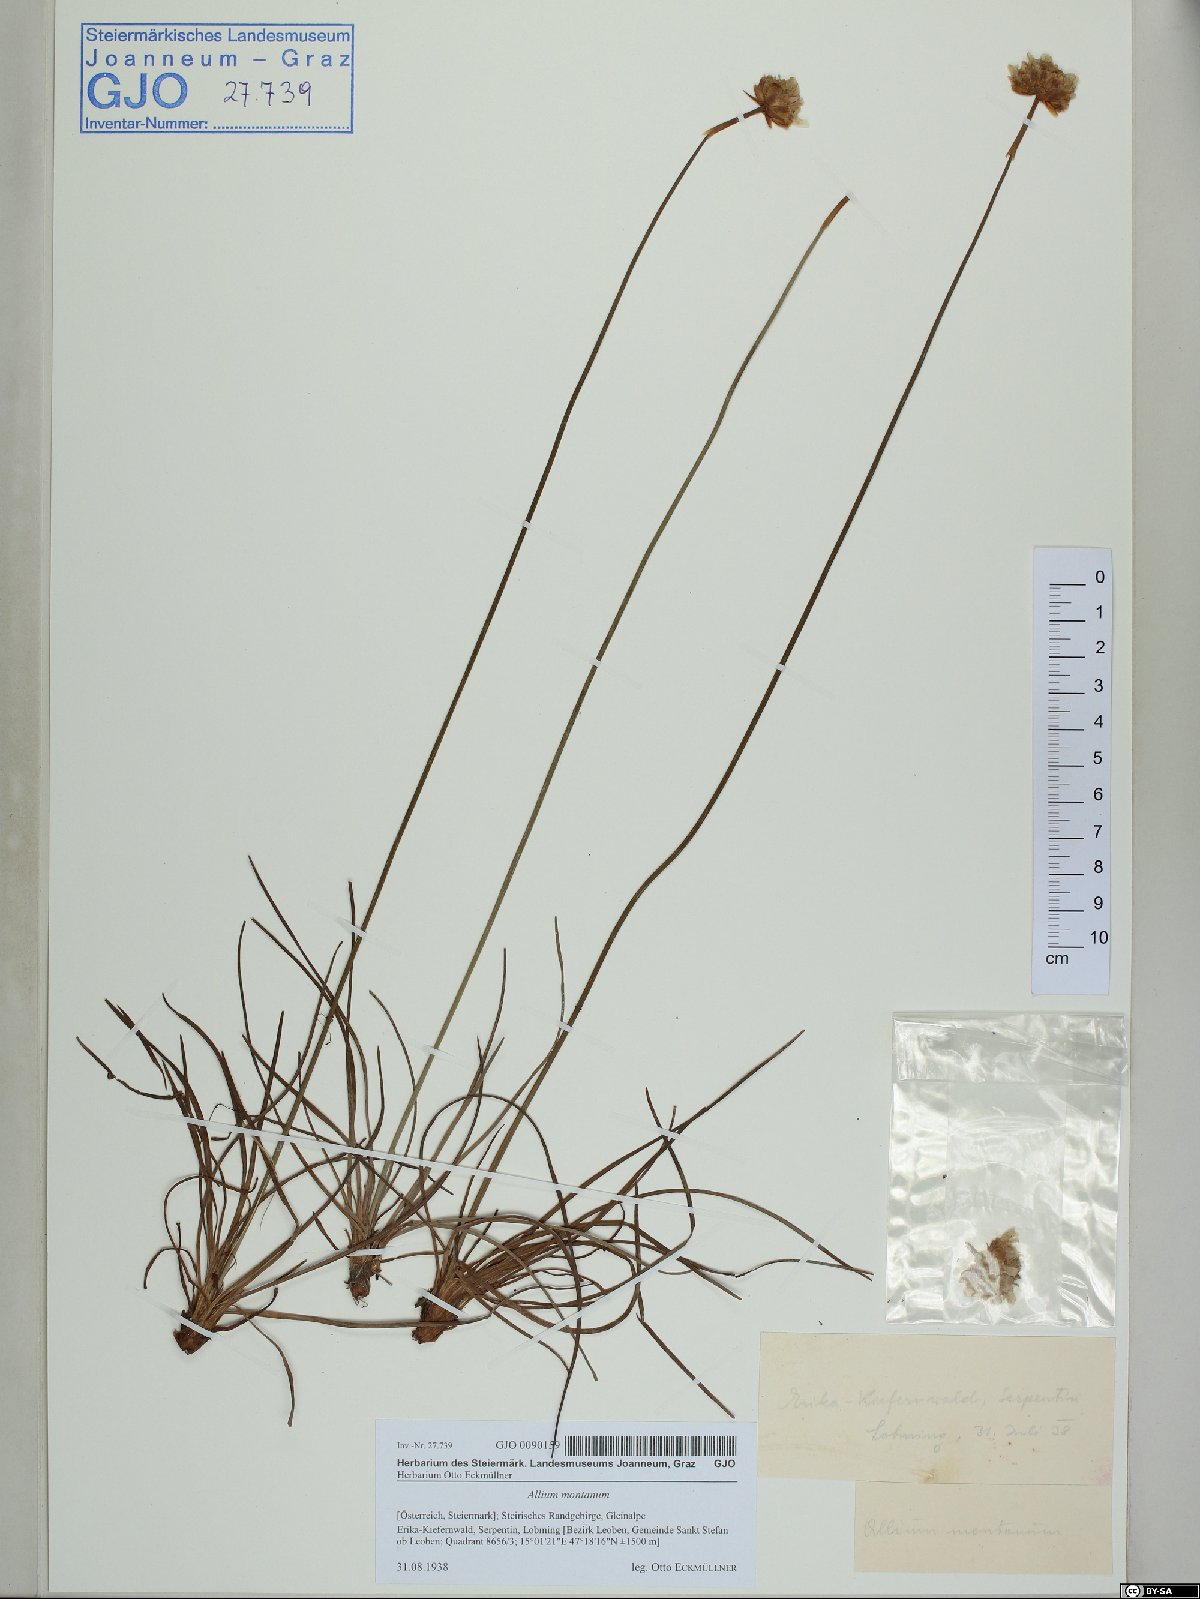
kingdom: Plantae
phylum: Tracheophyta
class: Liliopsida
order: Asparagales
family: Amaryllidaceae
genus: Allium
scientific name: Allium lusitanicum
